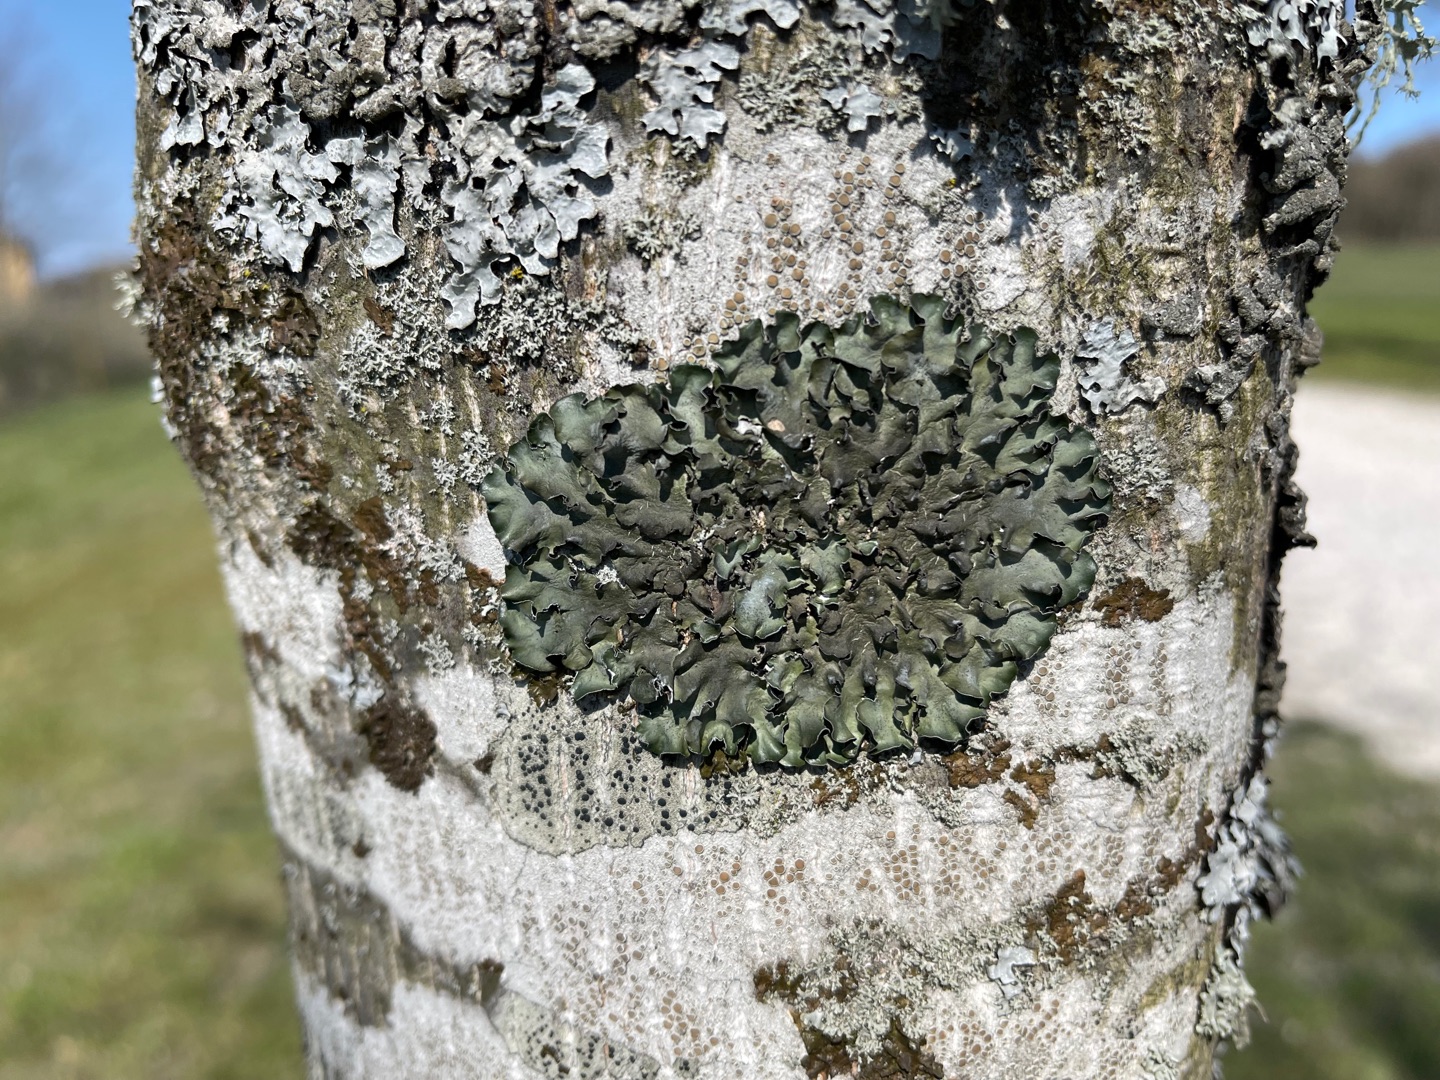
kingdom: Fungi
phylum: Ascomycota
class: Lecanoromycetes
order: Lecanorales
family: Parmeliaceae
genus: Pleurosticta
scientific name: Pleurosticta acetabulum
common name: Stor skållav
